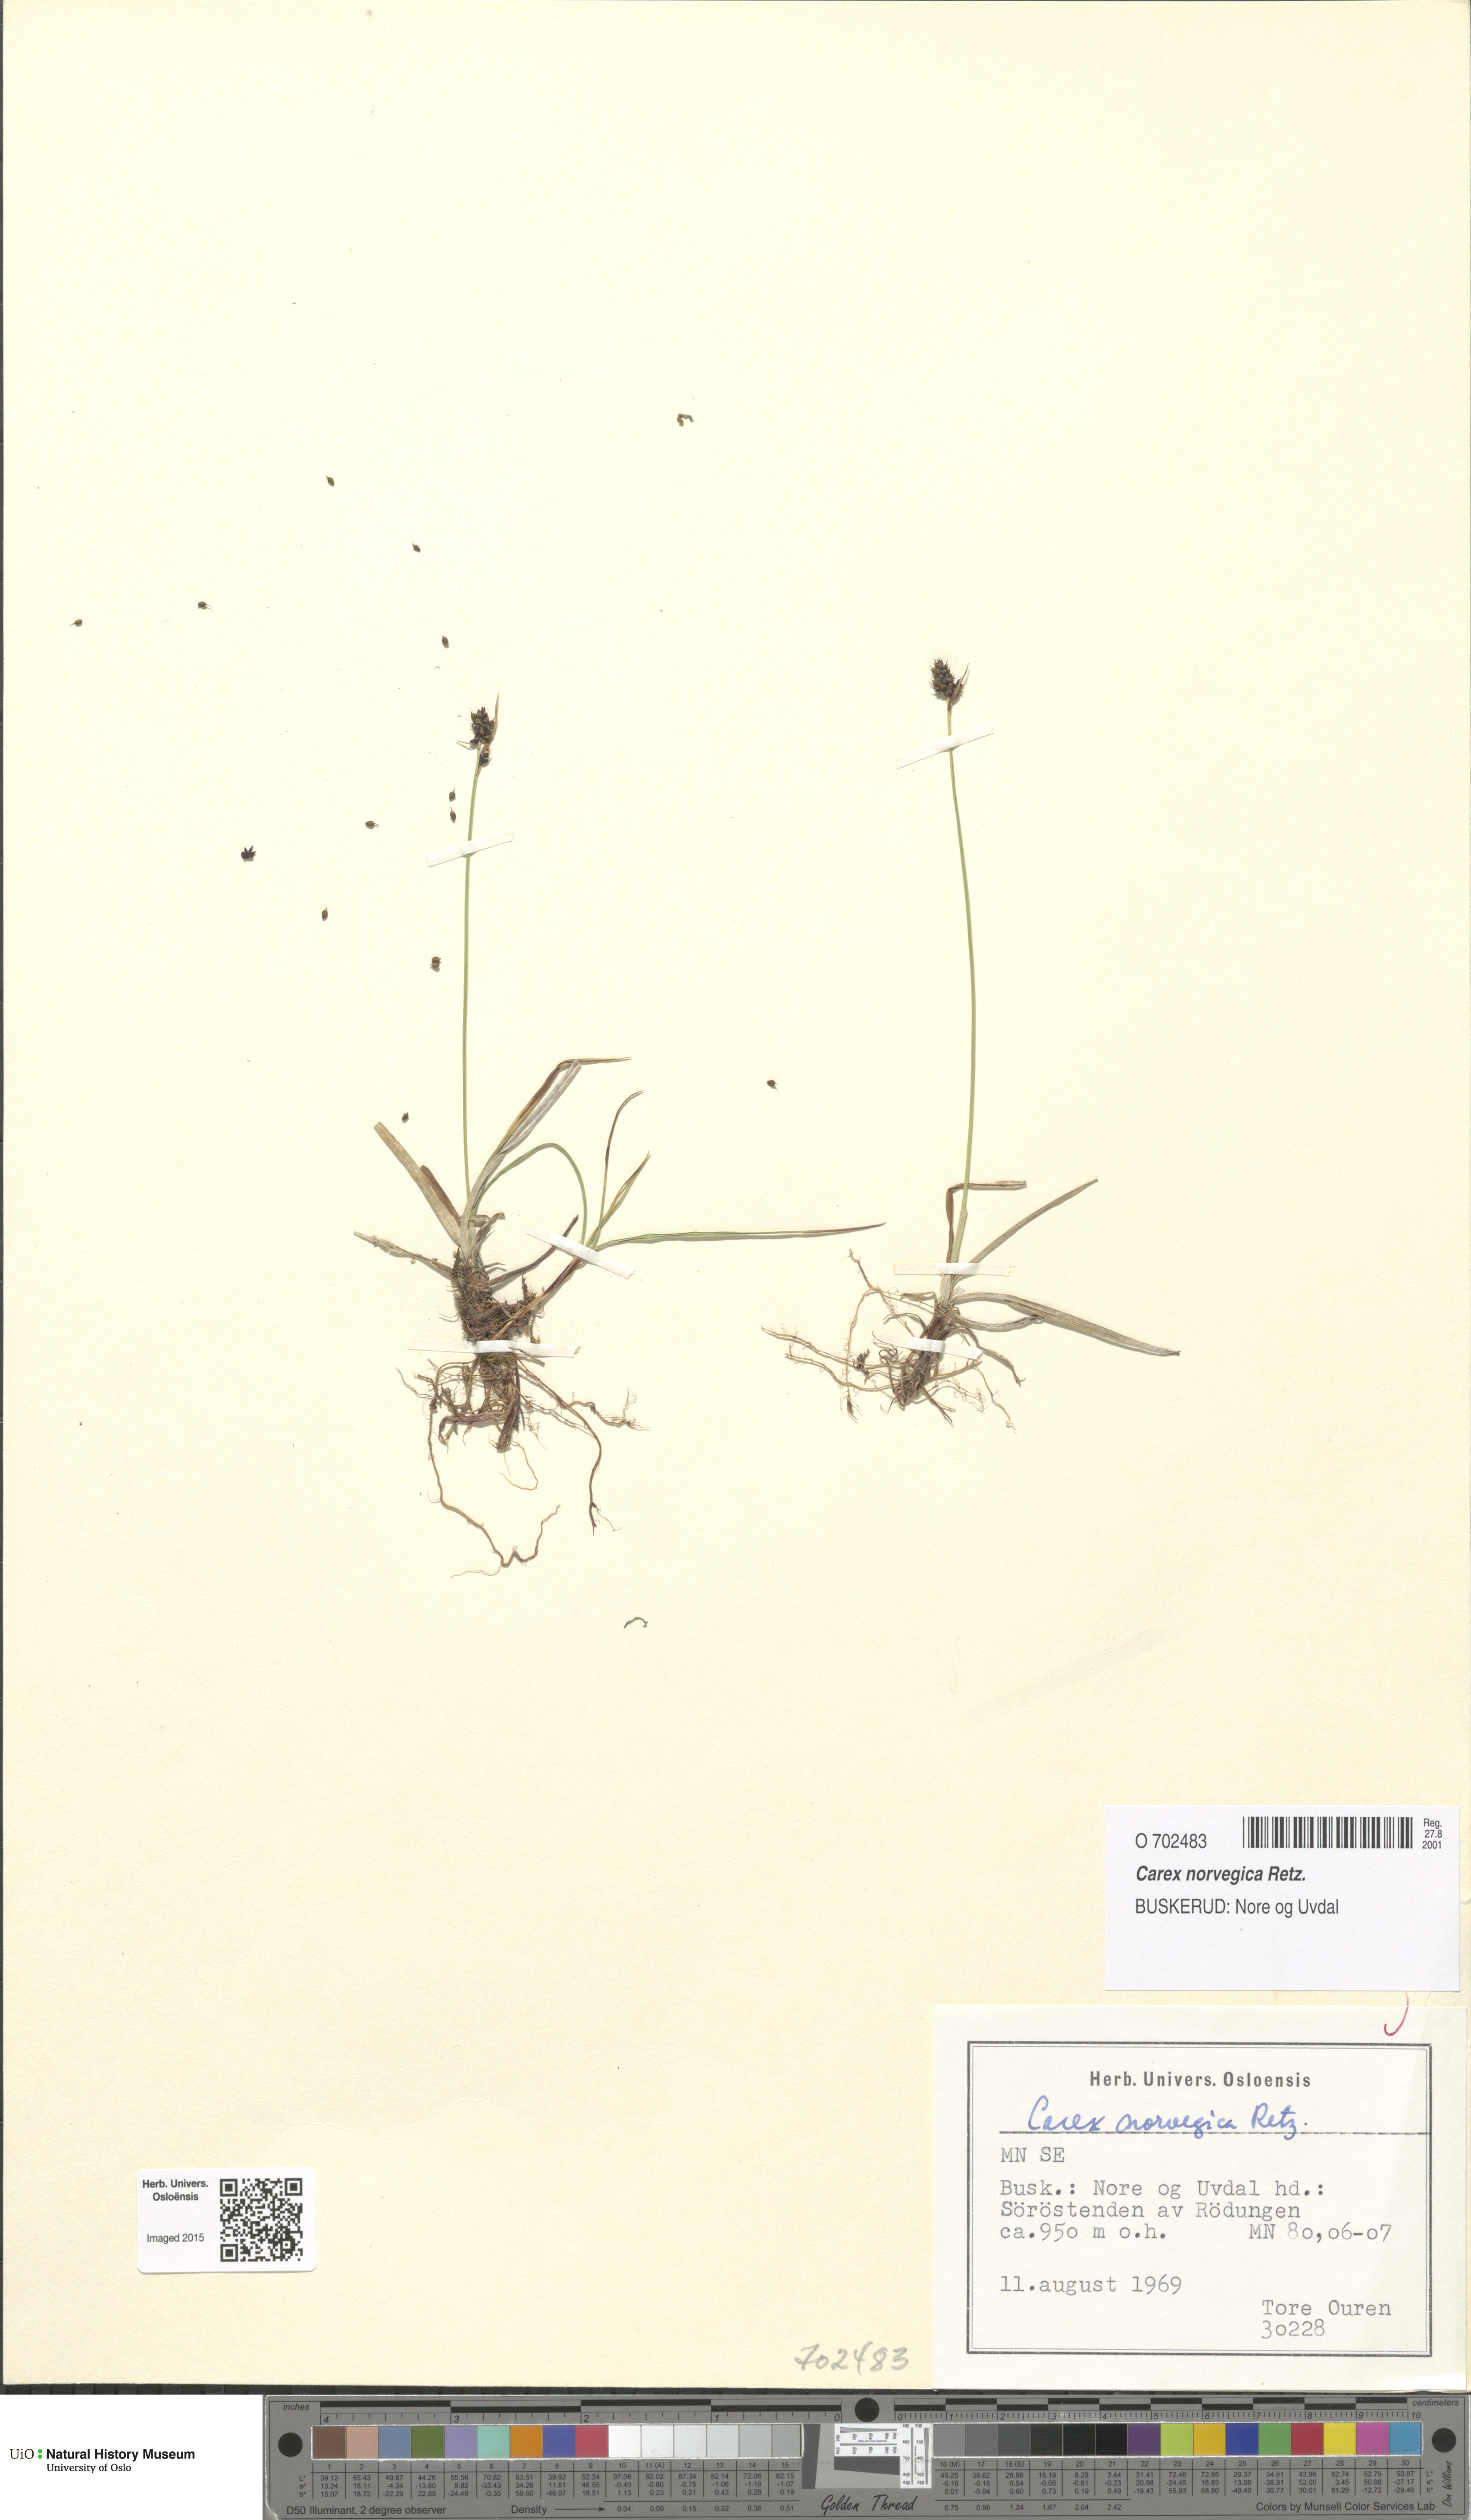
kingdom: Plantae
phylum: Tracheophyta
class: Liliopsida
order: Poales
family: Cyperaceae
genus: Carex
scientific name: Carex norvegica
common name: Close-headed alpine-sedge
